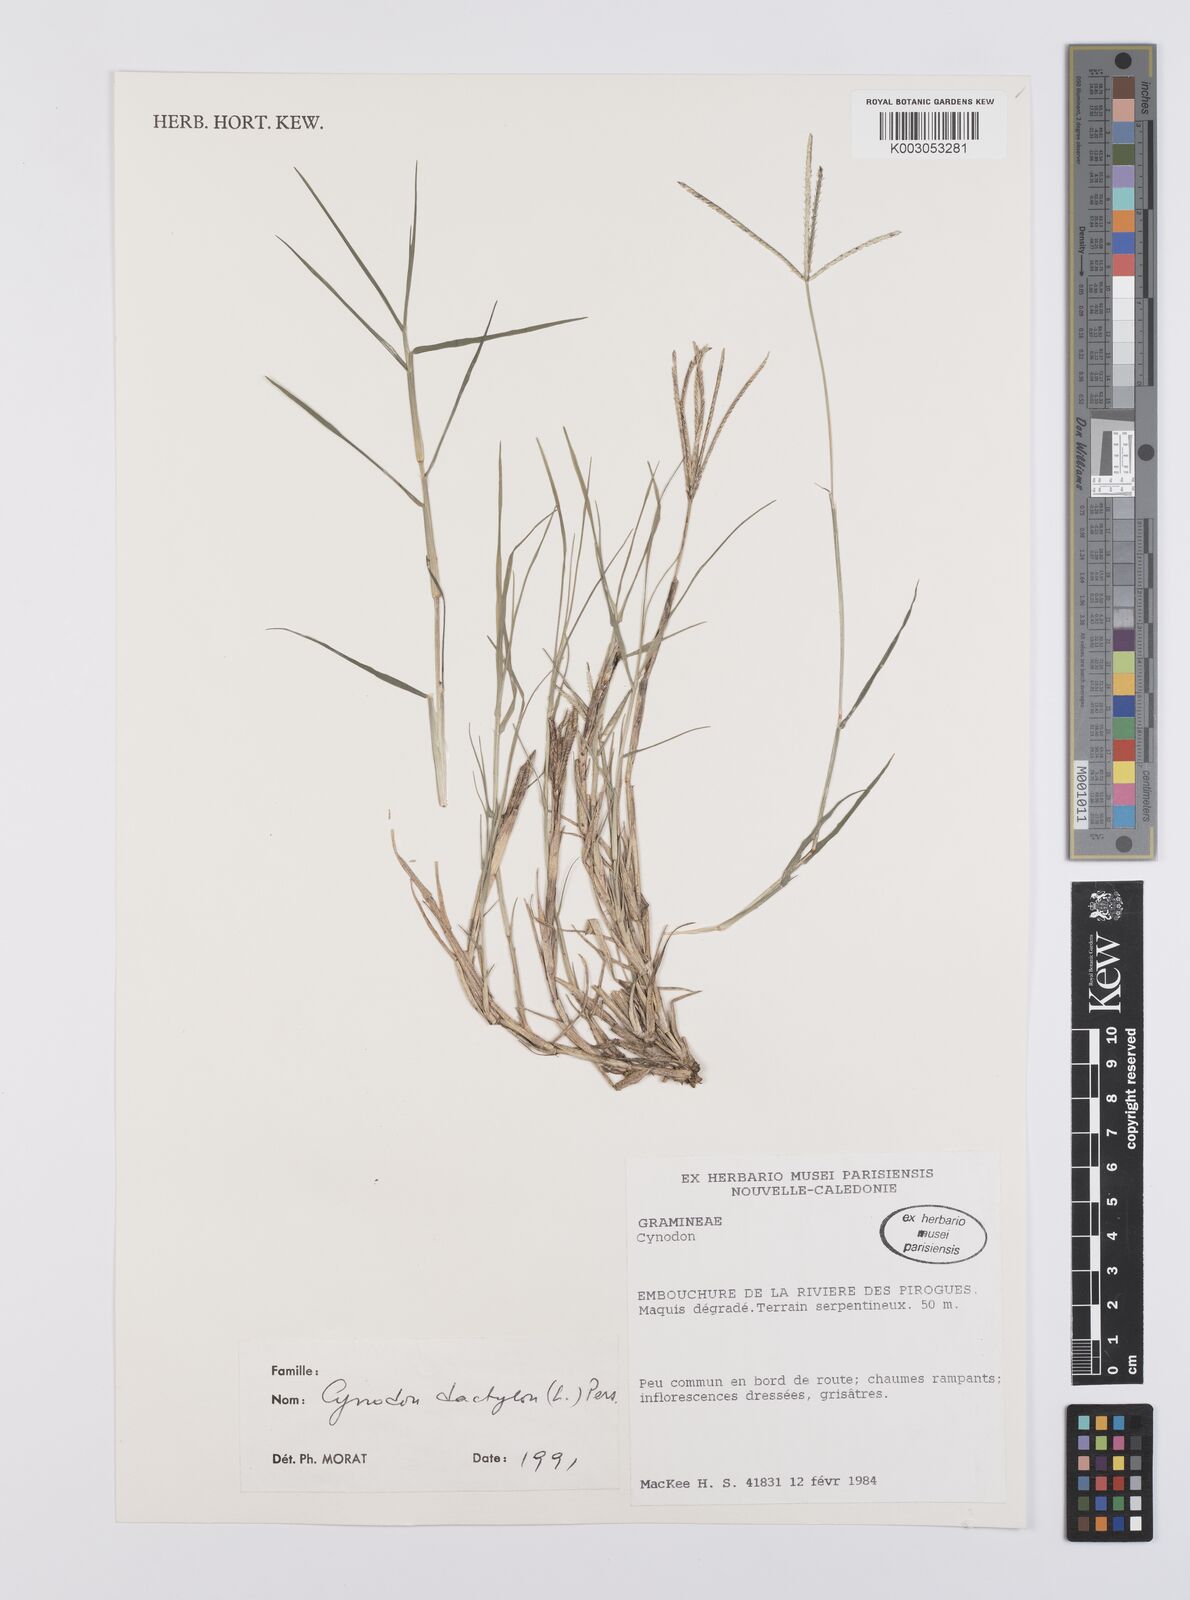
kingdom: Plantae
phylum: Tracheophyta
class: Liliopsida
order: Poales
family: Poaceae
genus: Cynodon
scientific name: Cynodon dactylon
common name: Bermuda grass
